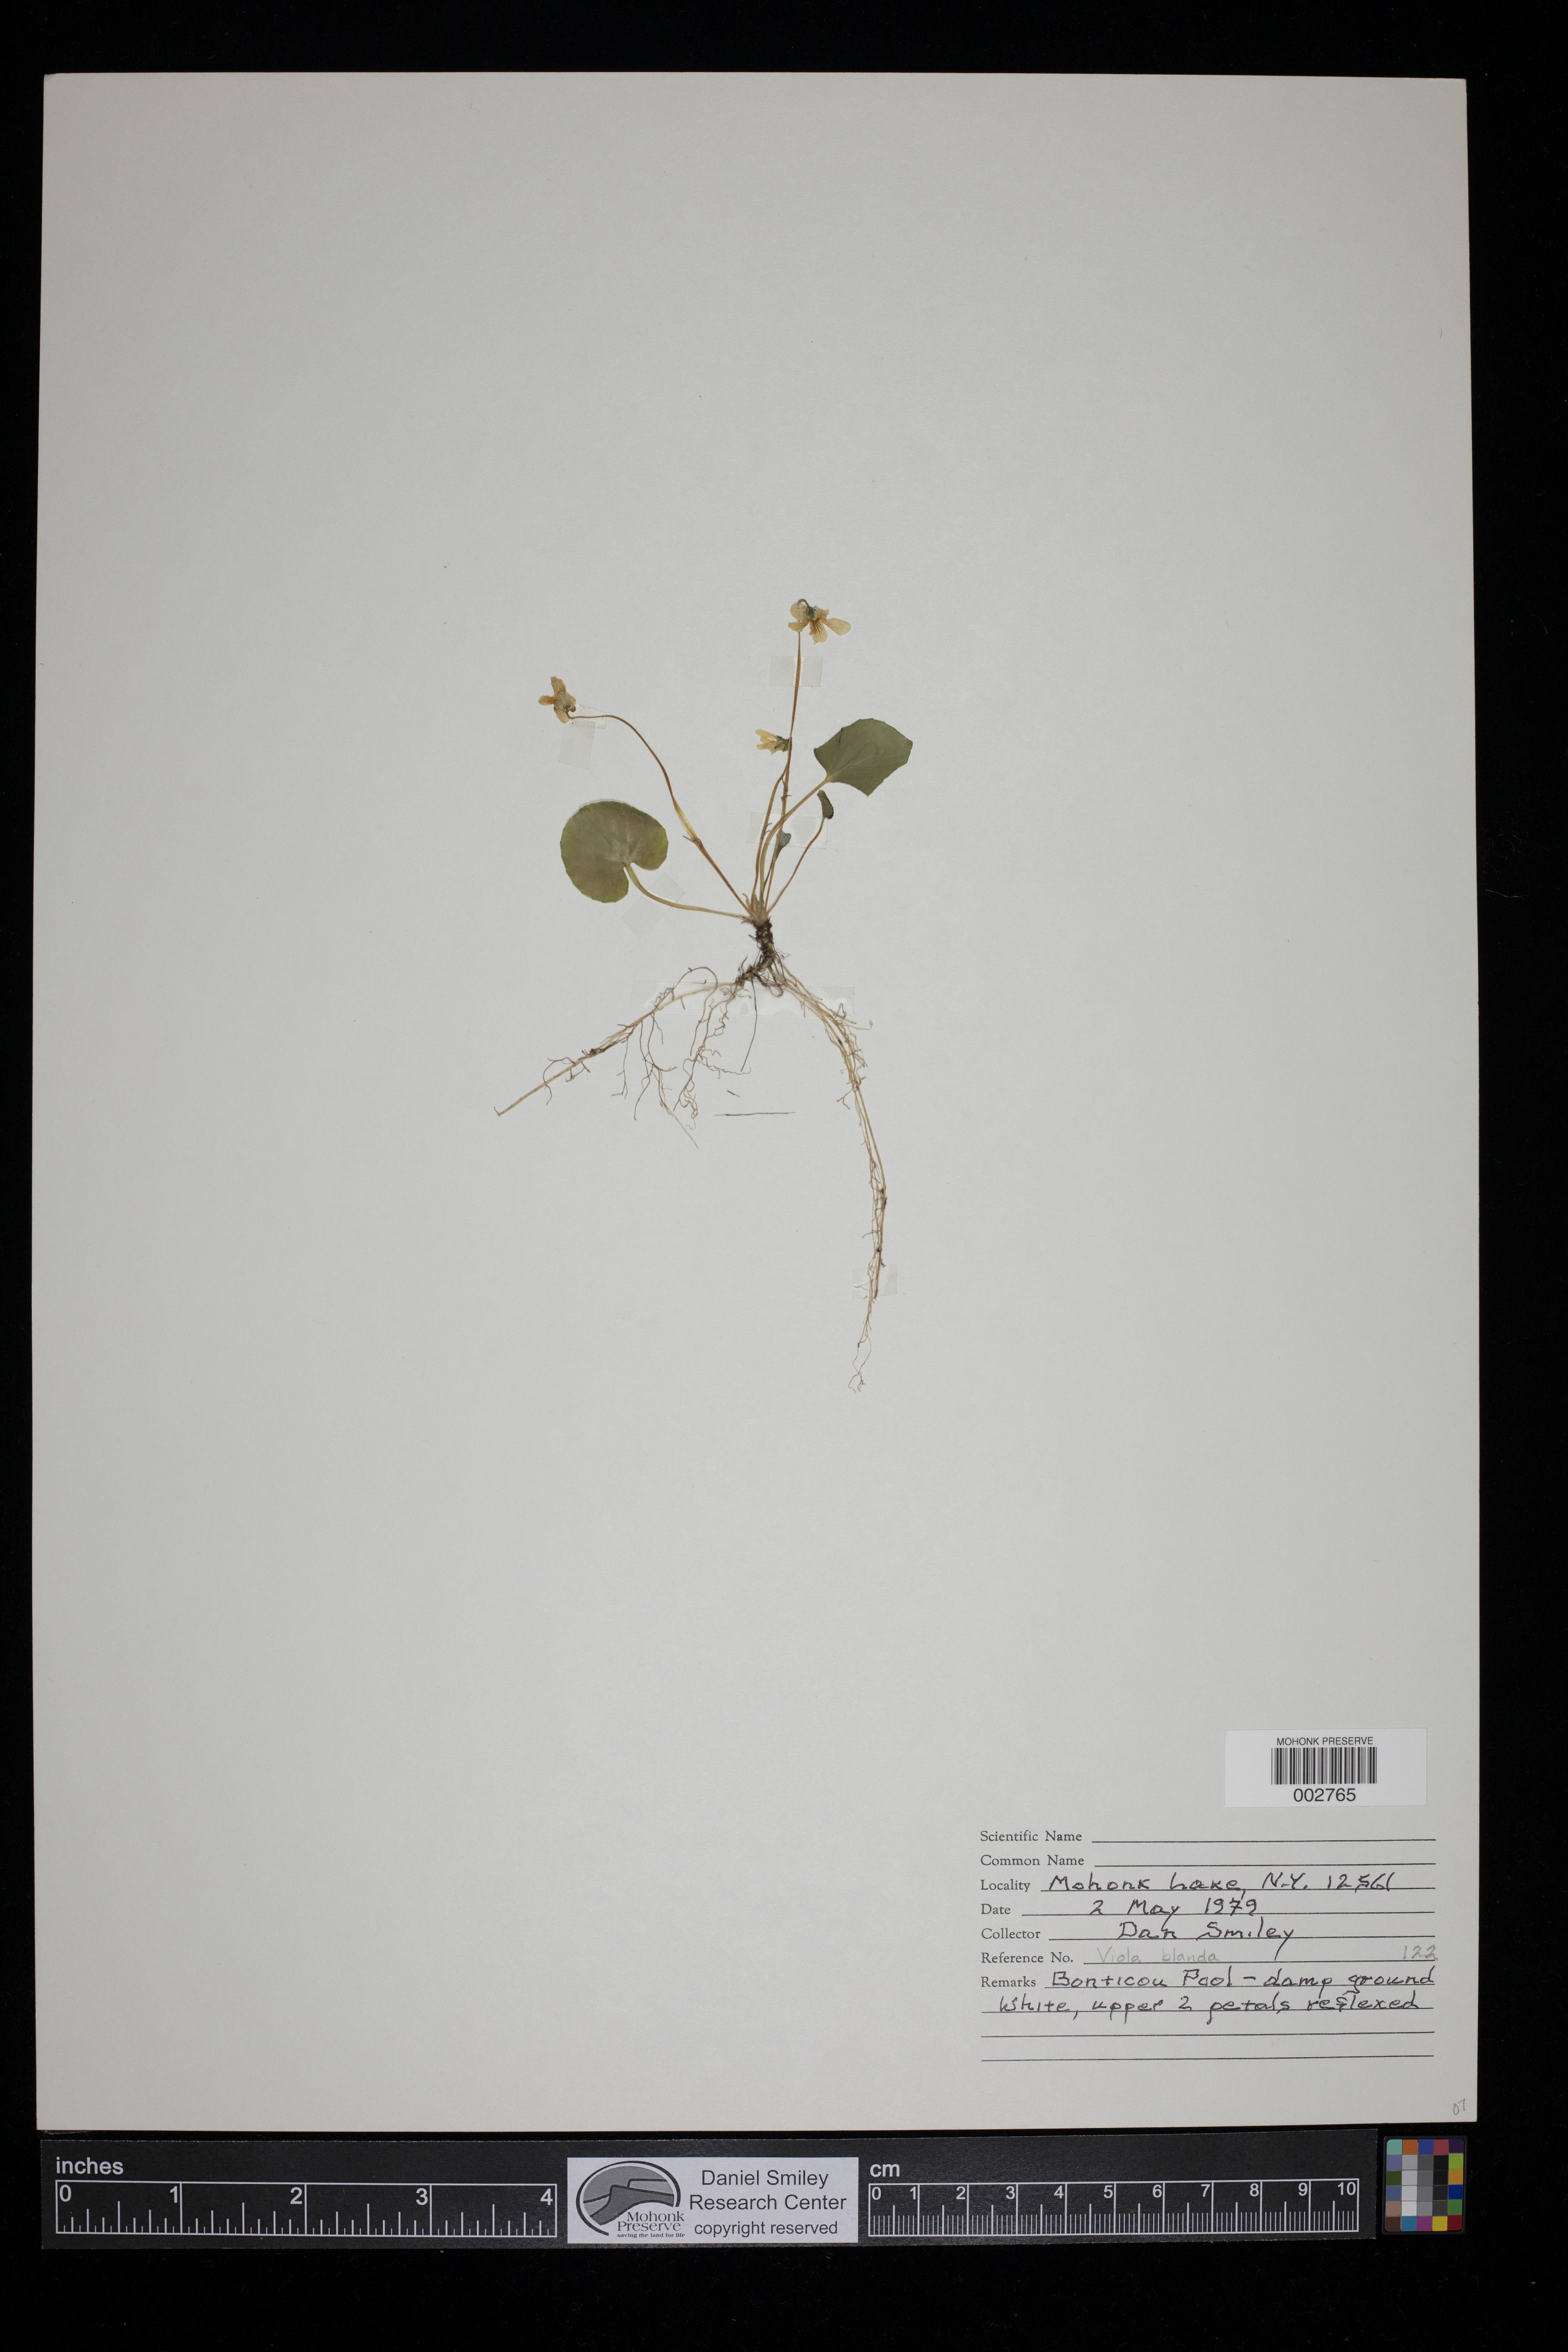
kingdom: Plantae
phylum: Tracheophyta
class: Magnoliopsida
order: Malpighiales
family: Violaceae
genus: Viola
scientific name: Viola blanda
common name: Sweet white violet
